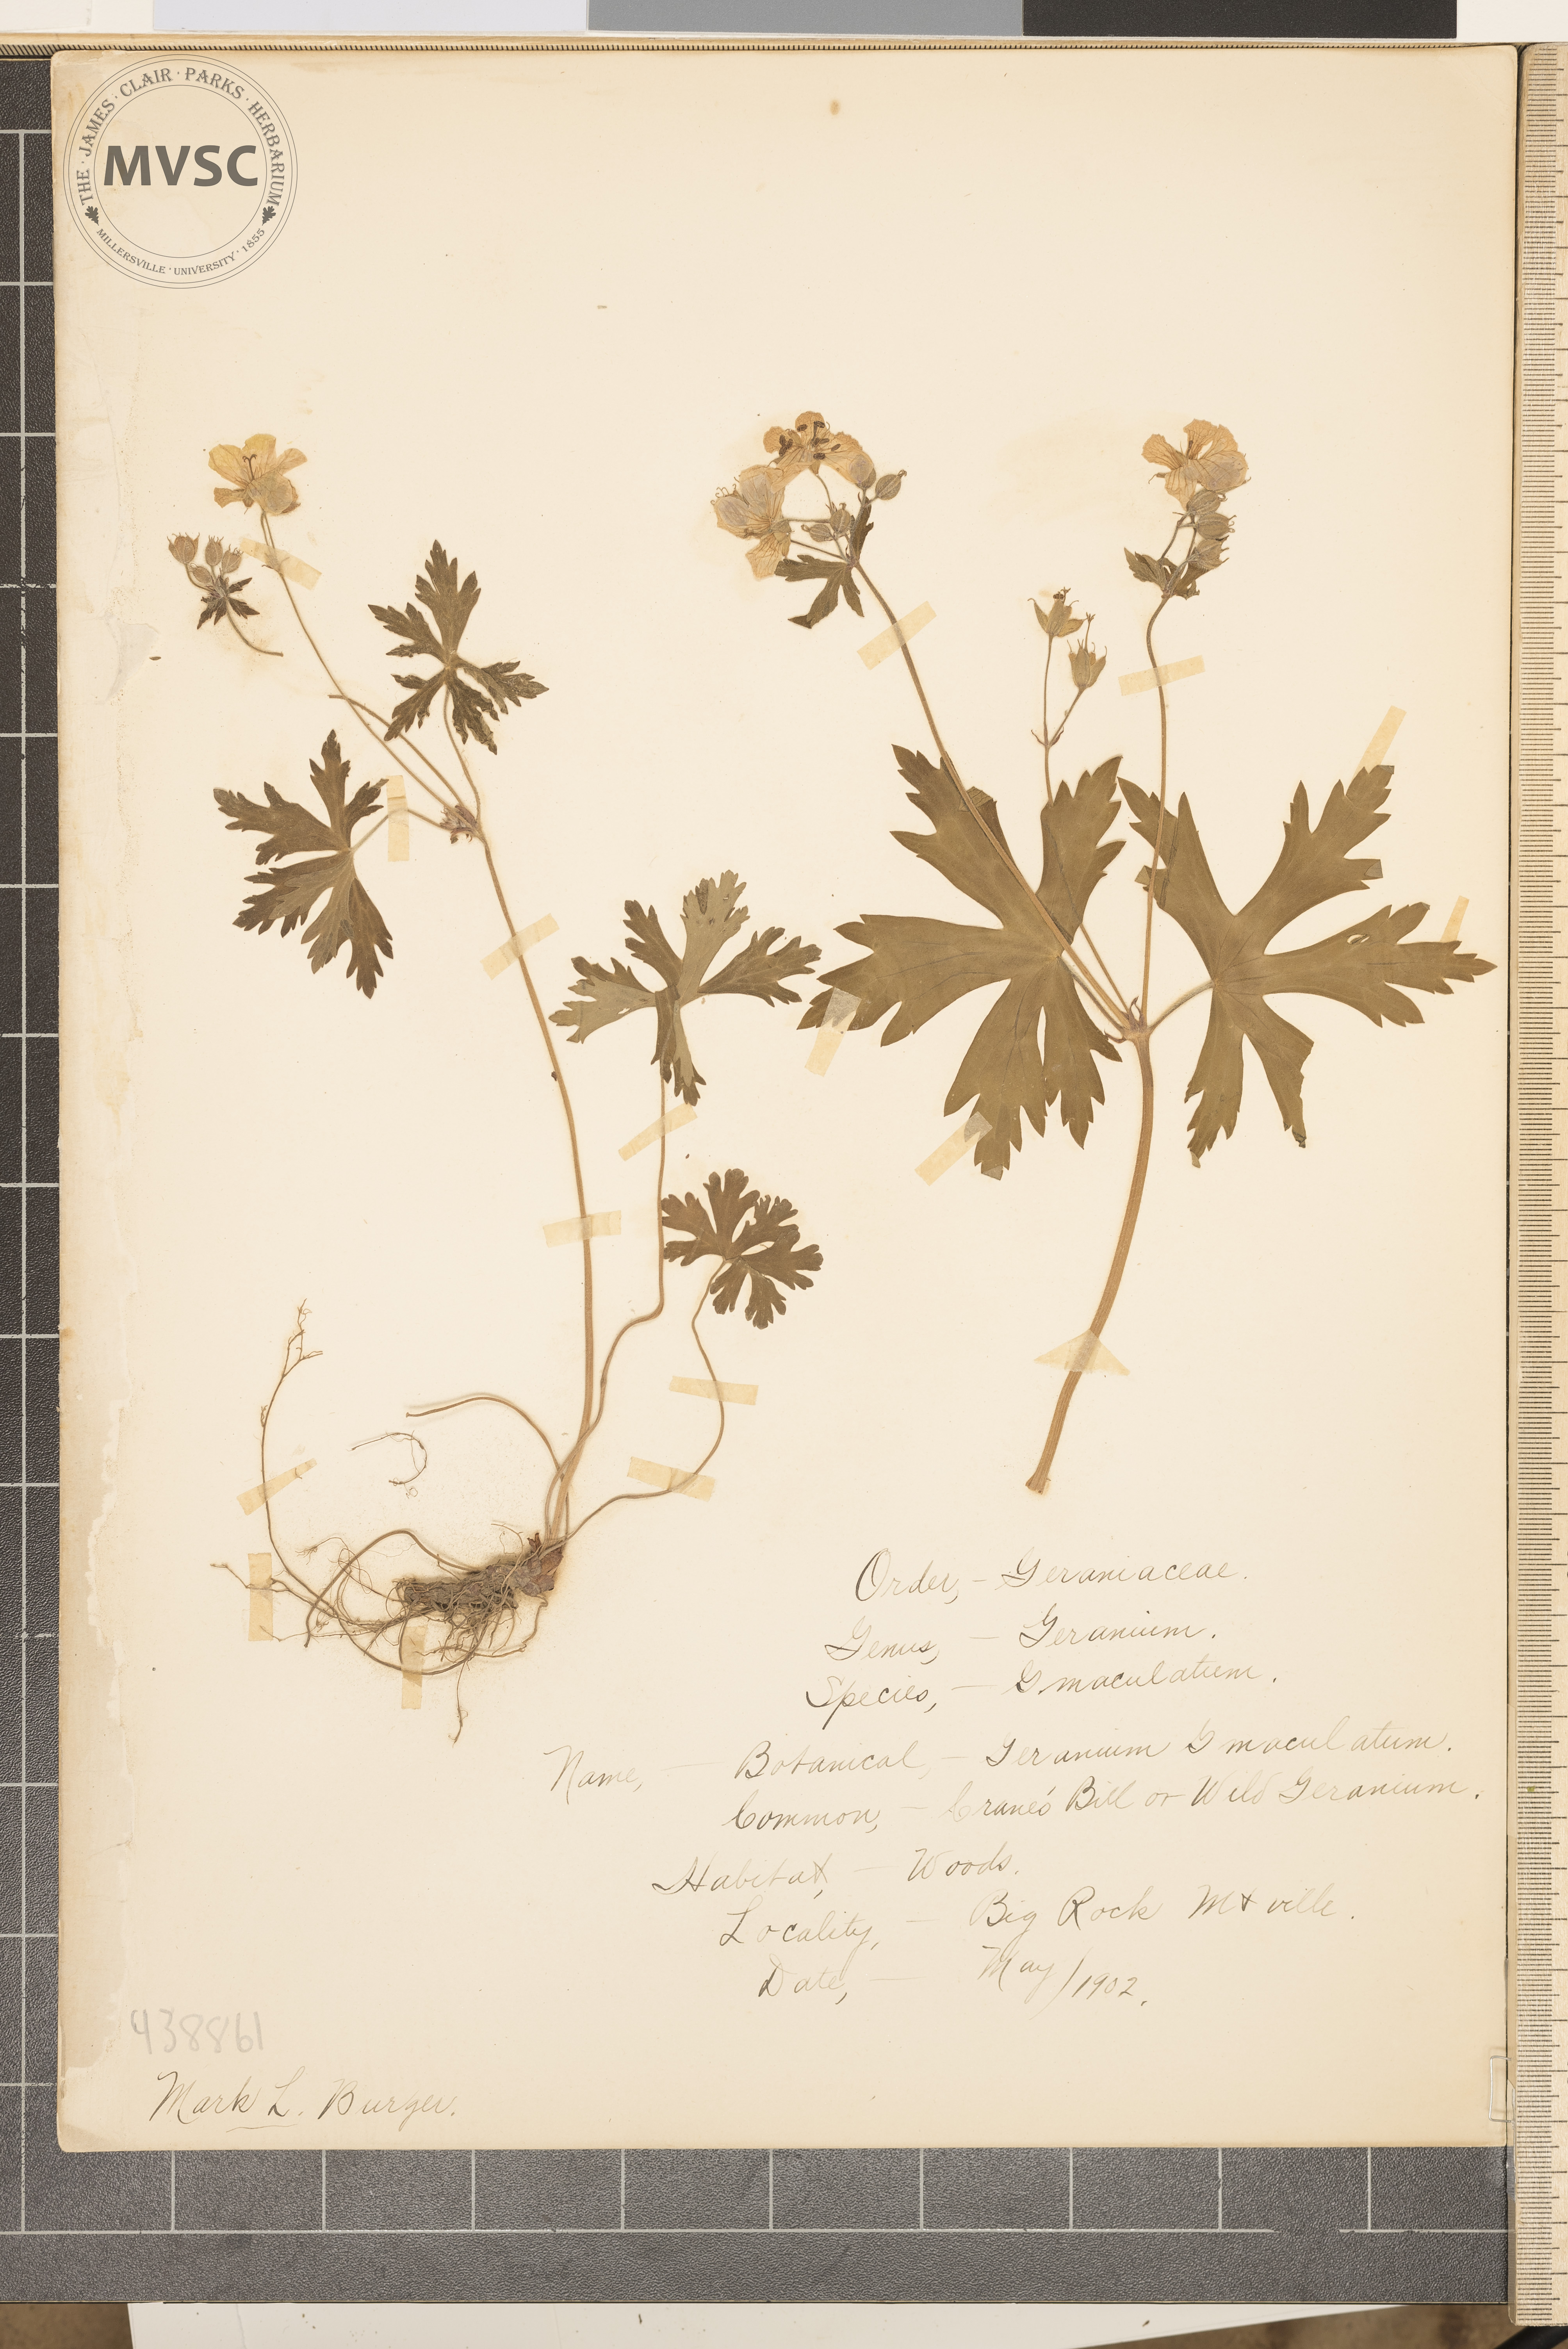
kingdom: Plantae
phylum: Tracheophyta
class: Magnoliopsida
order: Geraniales
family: Geraniaceae
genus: Geranium
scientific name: Geranium maculatum
